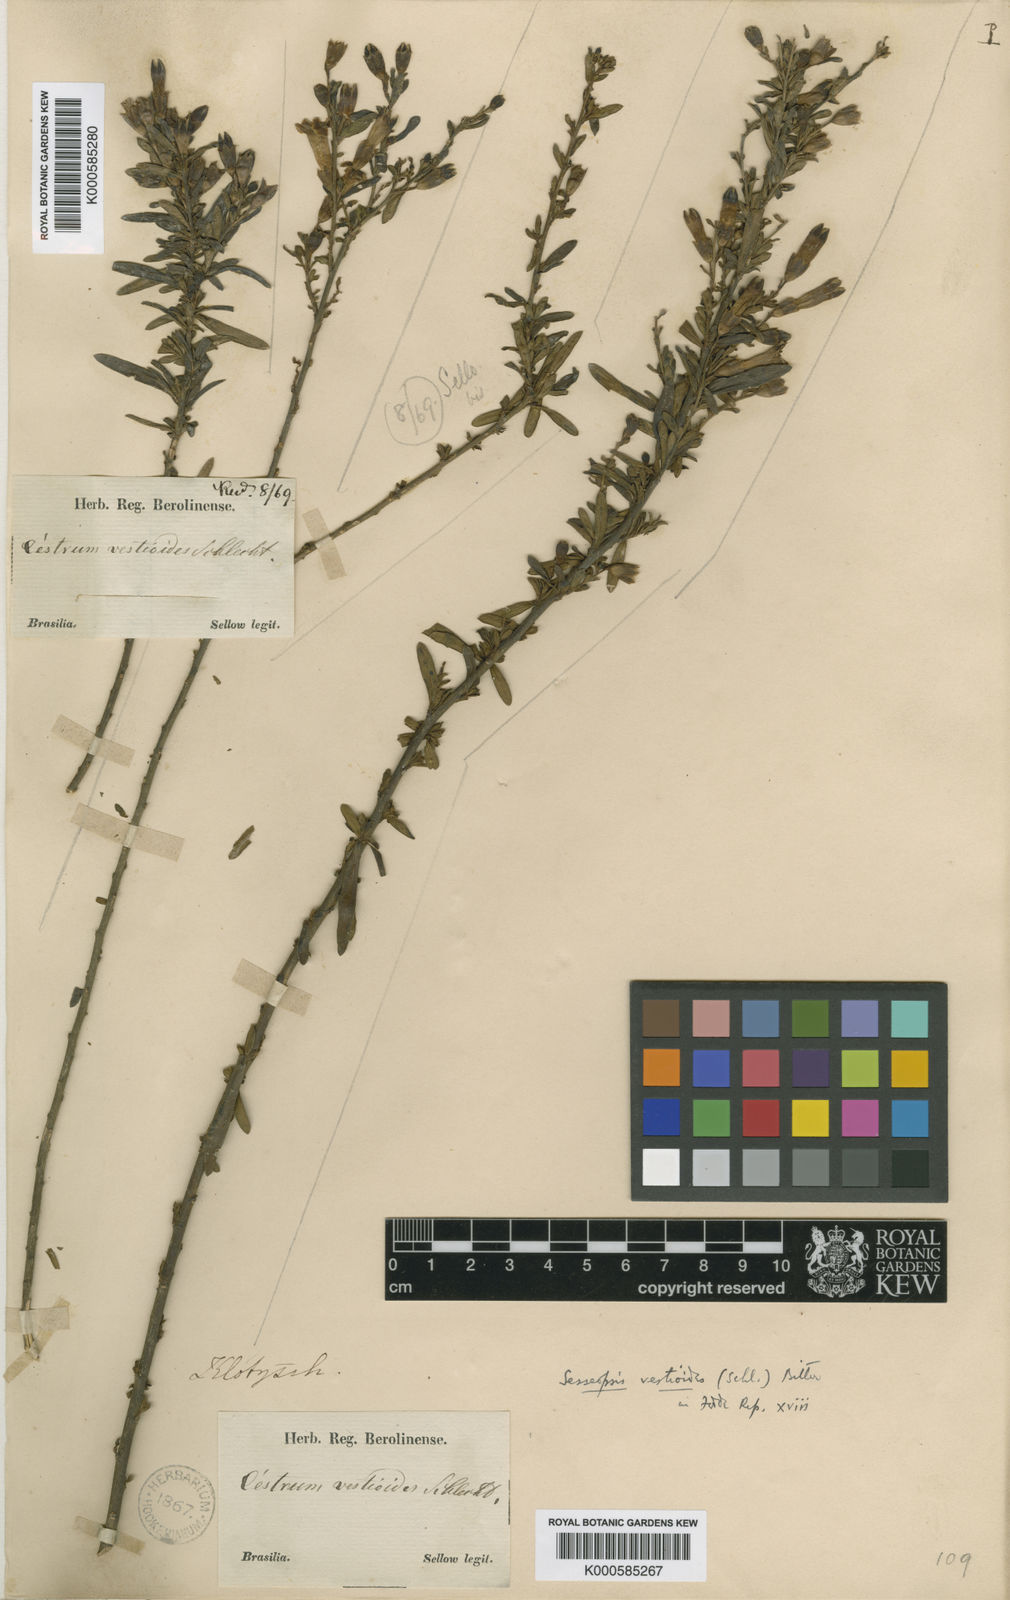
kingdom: Plantae
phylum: Tracheophyta
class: Magnoliopsida
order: Solanales
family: Solanaceae
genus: Sessea
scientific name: Sessea vestioides
